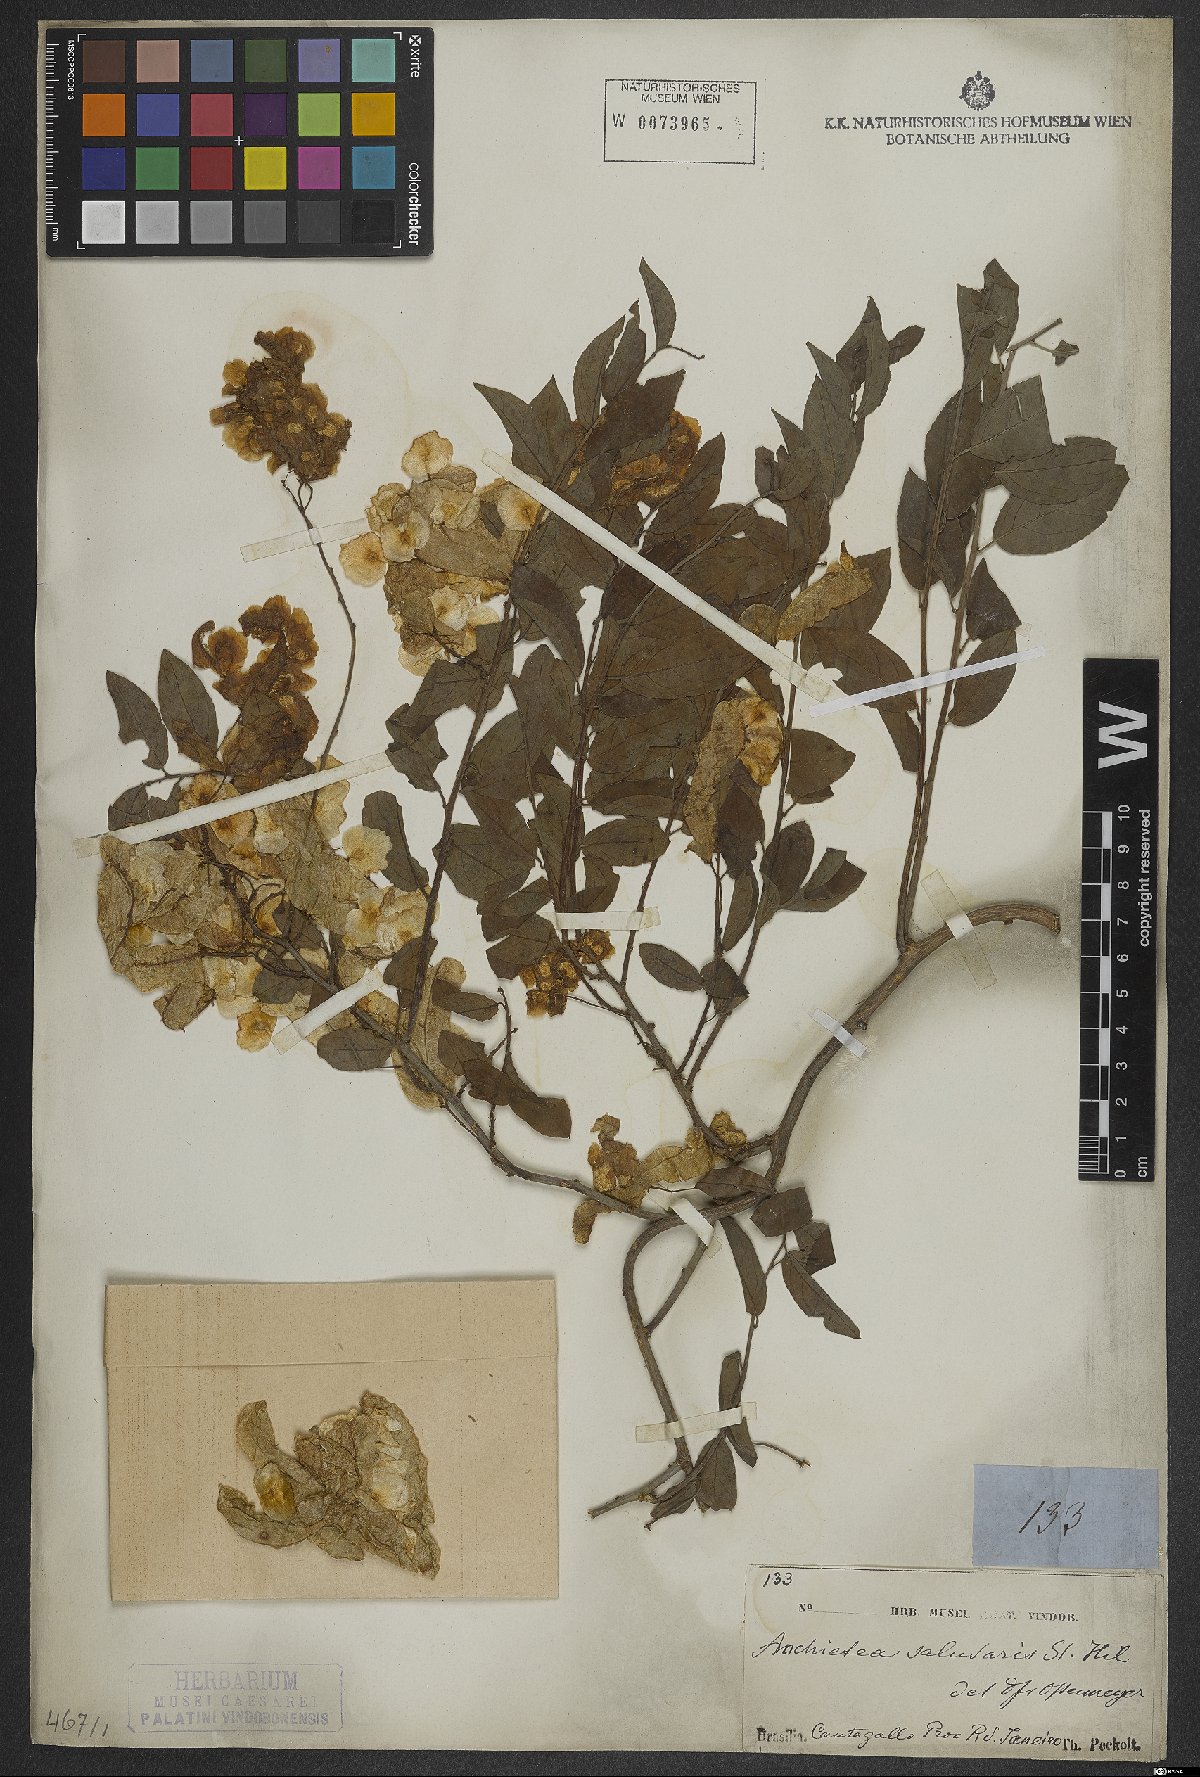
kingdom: Plantae
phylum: Tracheophyta
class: Magnoliopsida
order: Malpighiales
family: Violaceae
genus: Anchietea
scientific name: Anchietea pyrifolia
